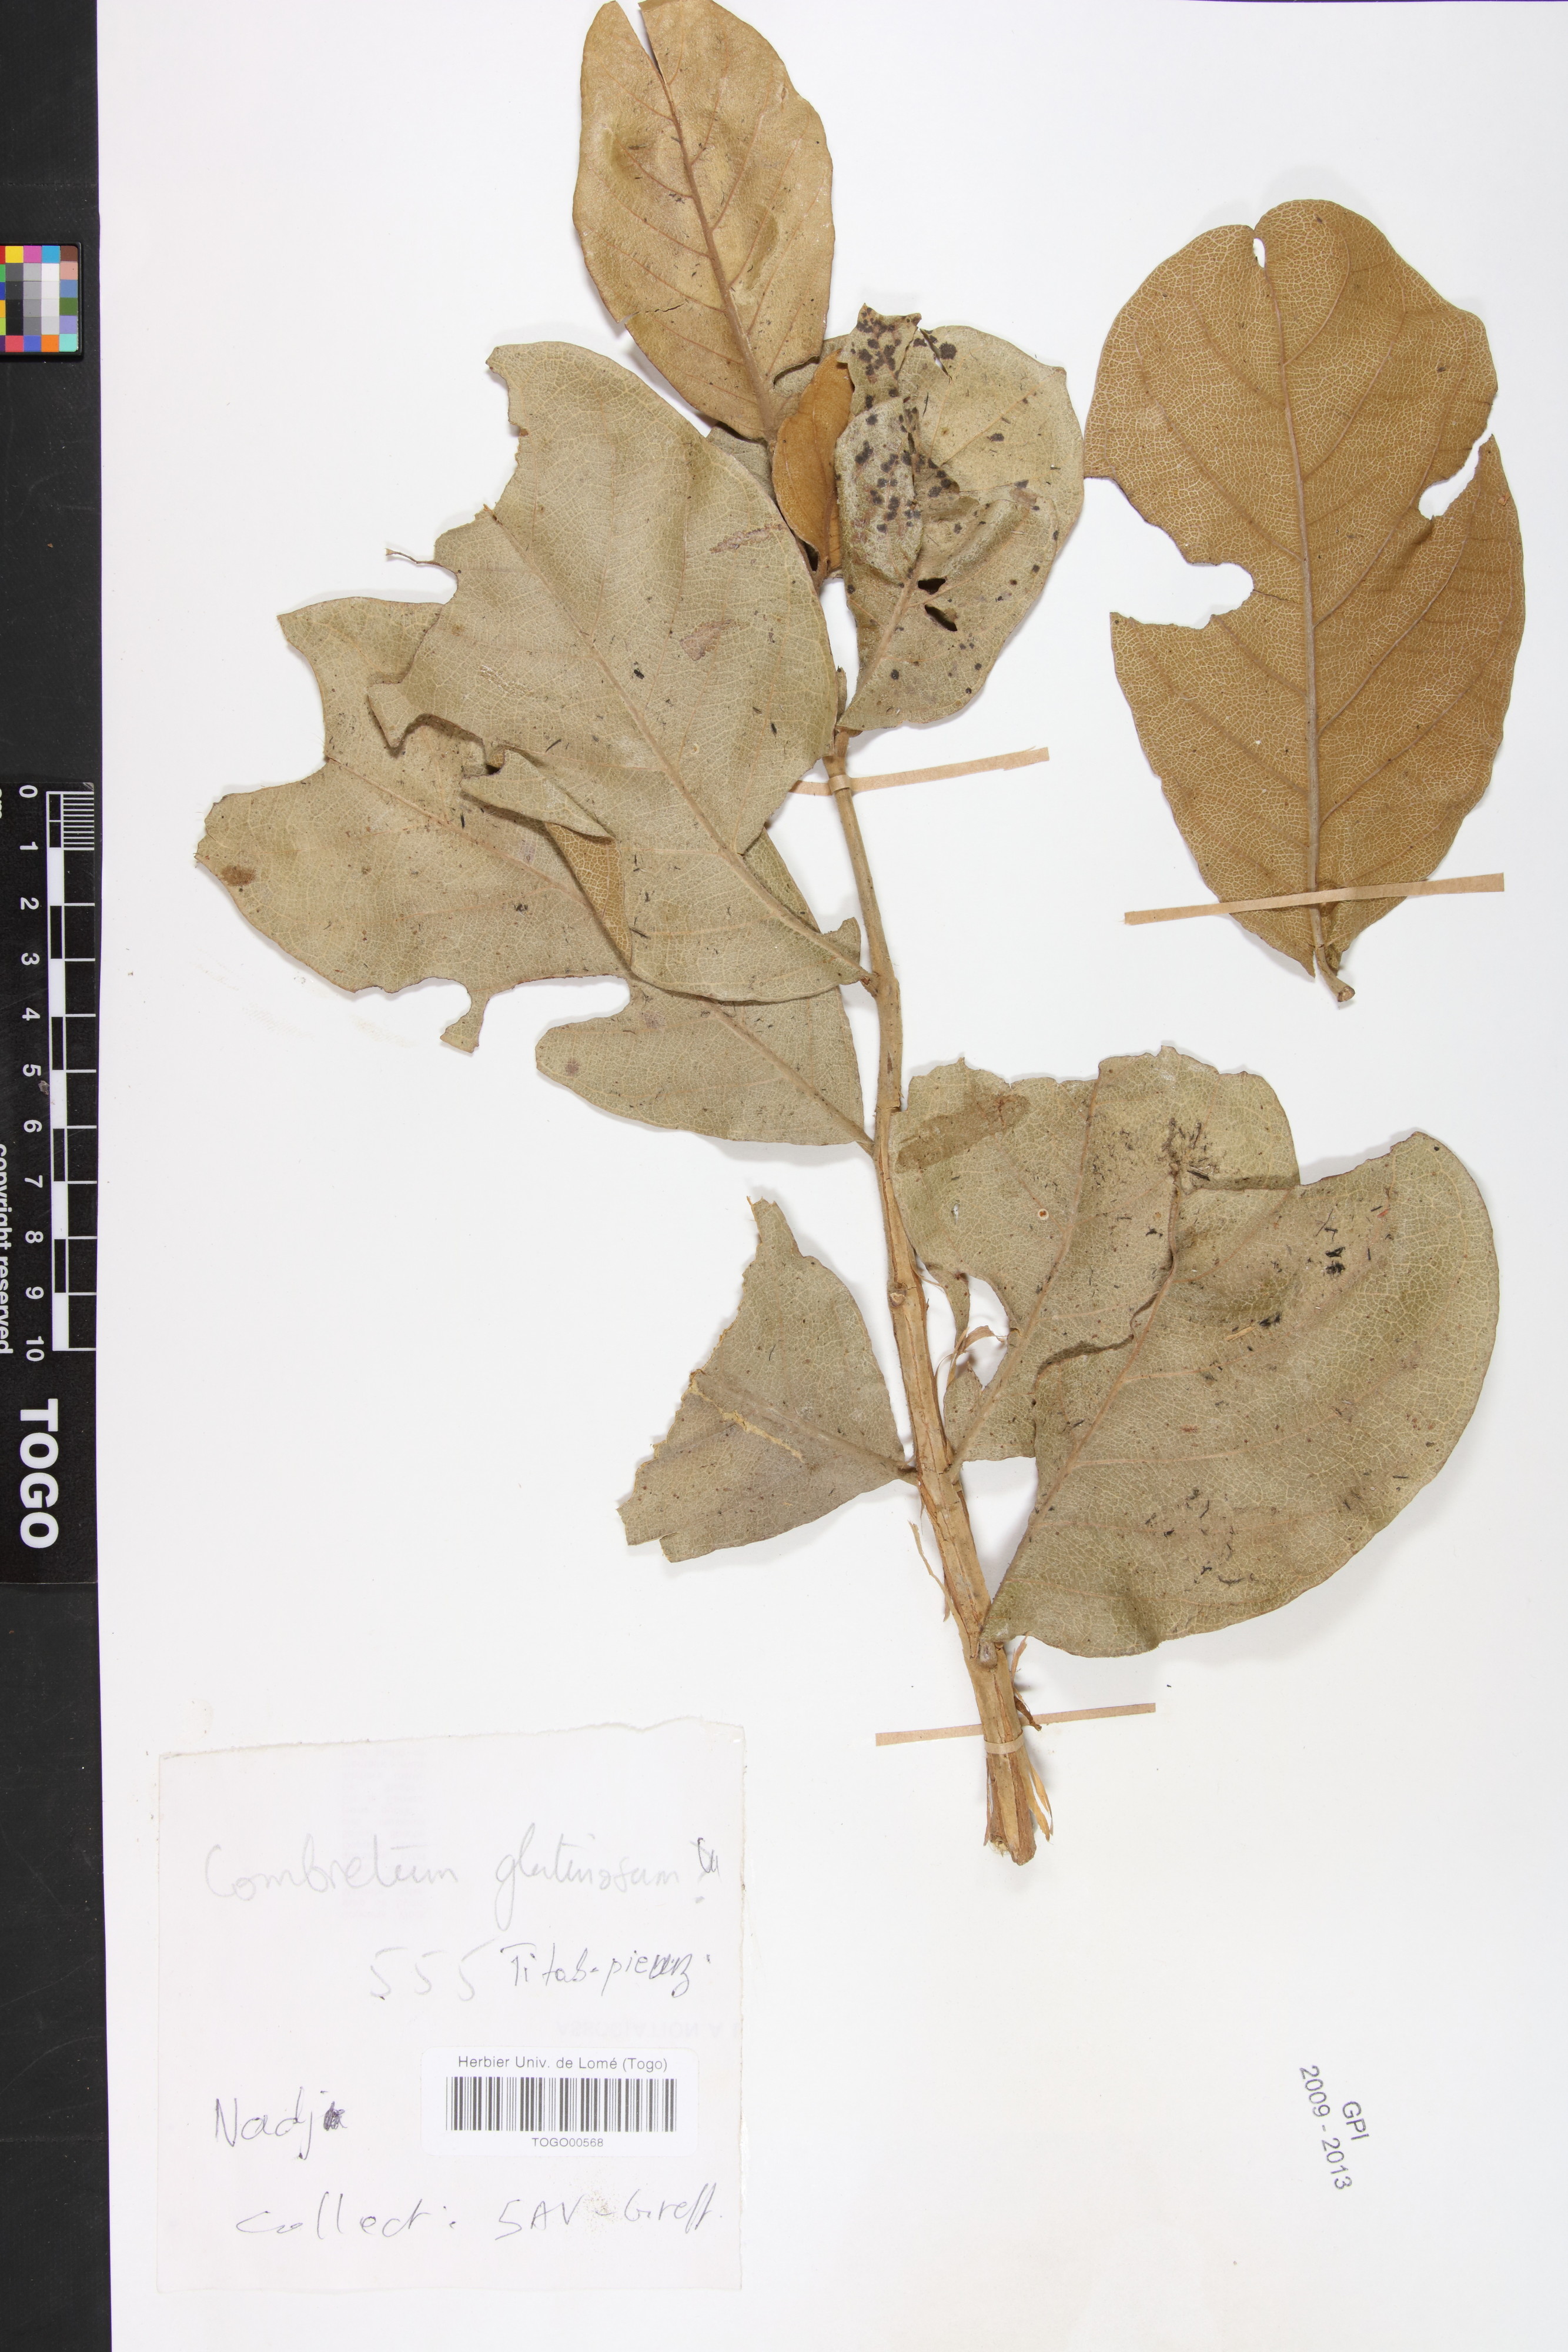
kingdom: Plantae
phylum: Tracheophyta
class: Magnoliopsida
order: Myrtales
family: Combretaceae
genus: Combretum
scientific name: Combretum glutinosum
